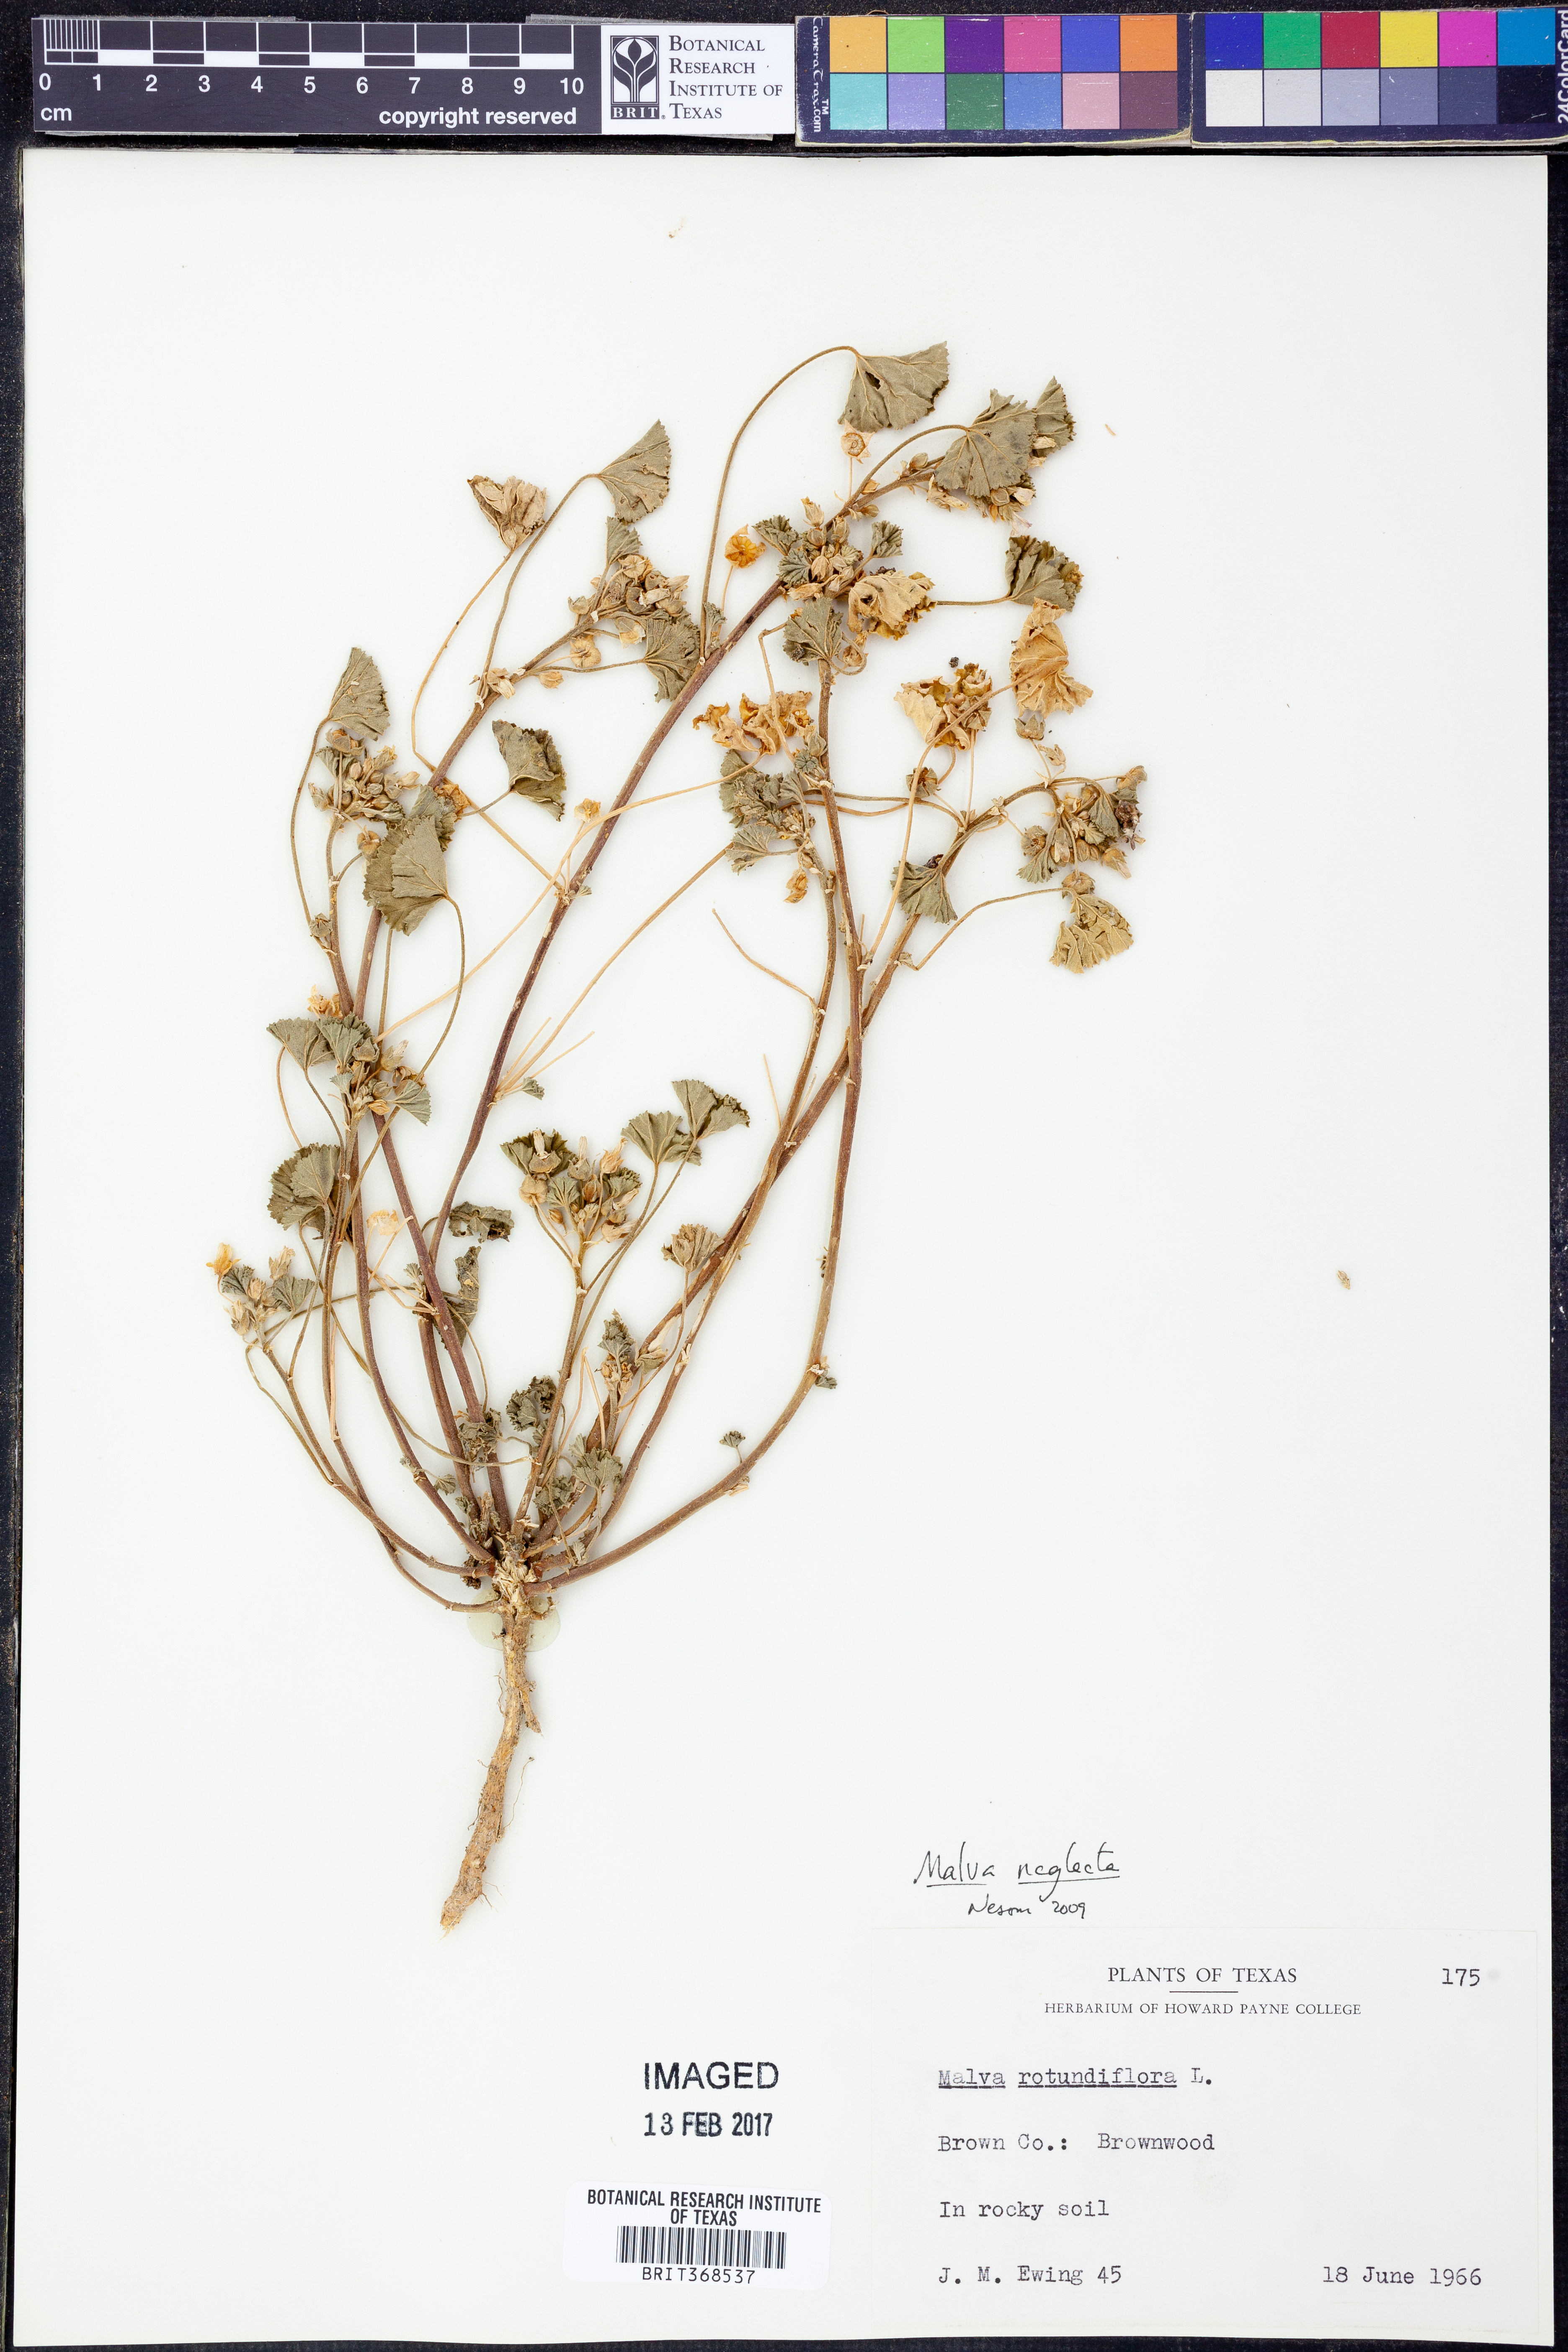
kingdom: Plantae
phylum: Tracheophyta
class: Magnoliopsida
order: Malvales
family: Malvaceae
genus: Malva
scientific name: Malva neglecta
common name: Common mallow
